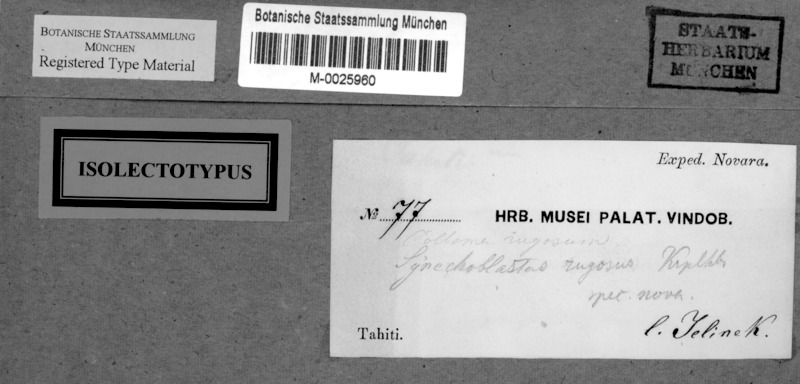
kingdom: Fungi
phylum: Ascomycota
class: Lecanoromycetes
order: Peltigerales
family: Collemataceae
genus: Collema
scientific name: Collema rugosum
